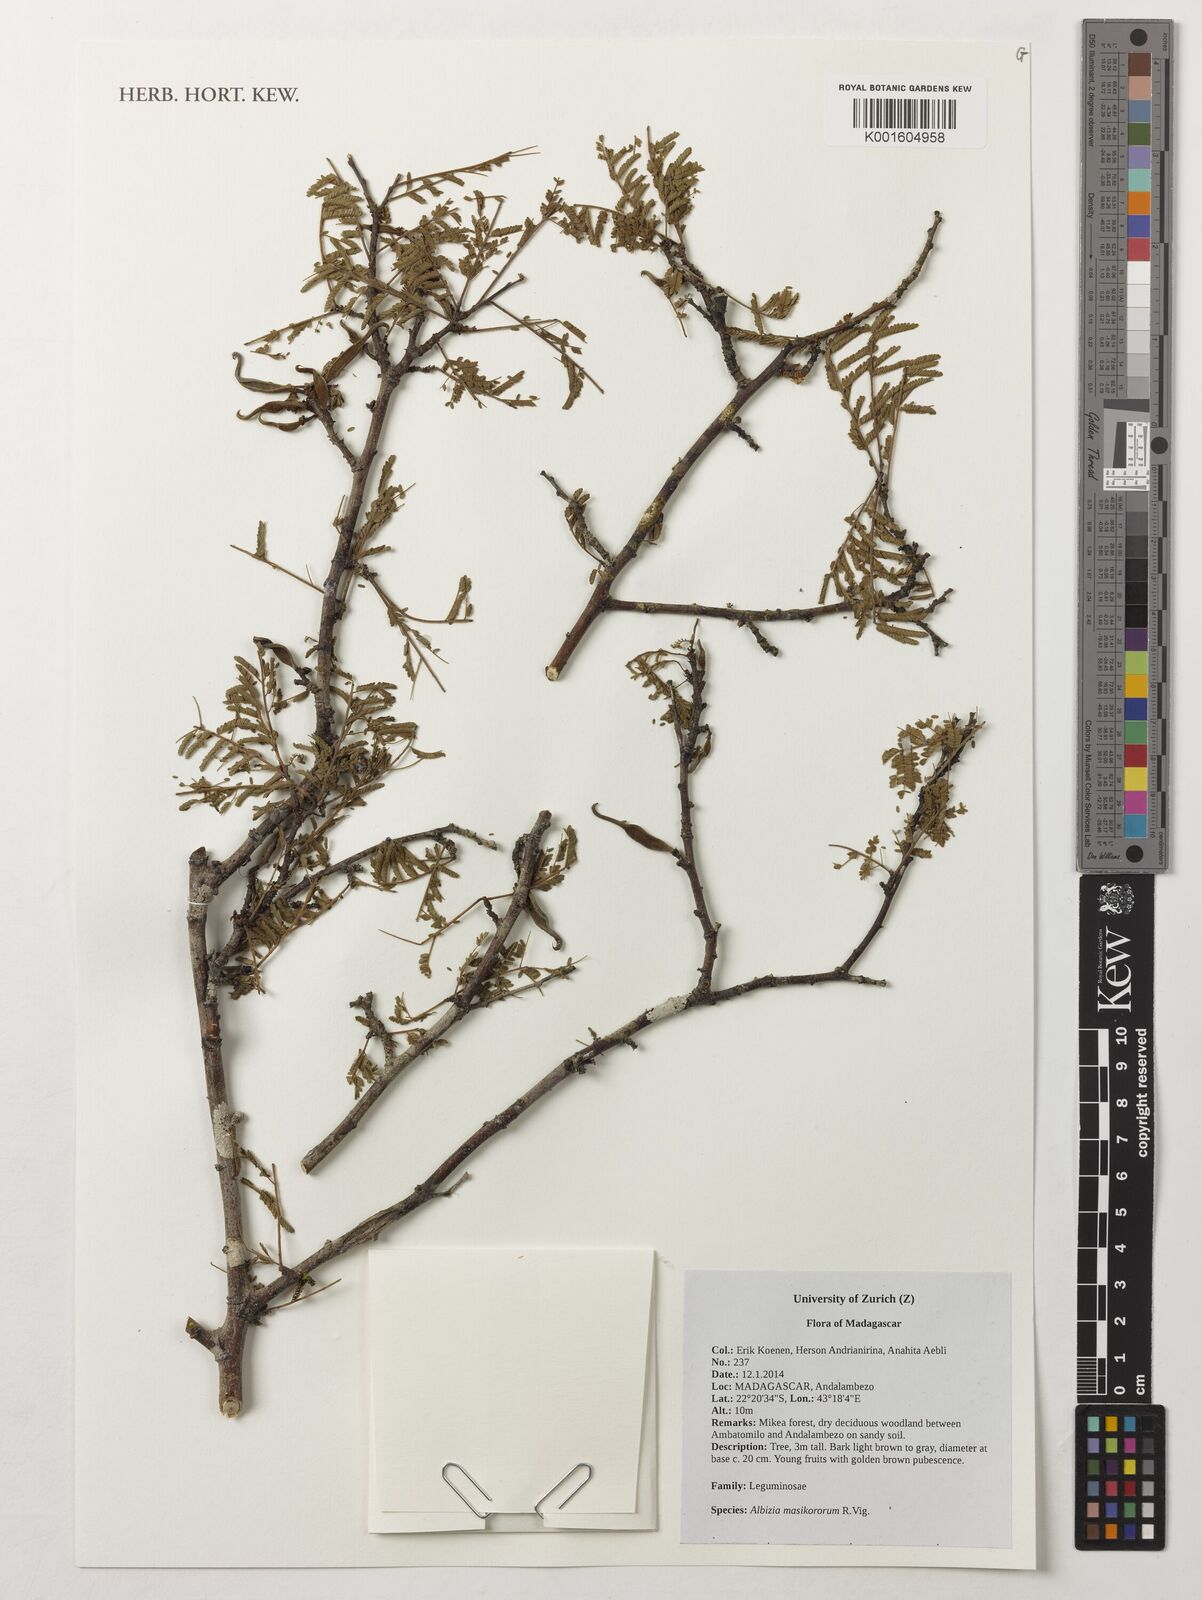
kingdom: Plantae
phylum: Tracheophyta
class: Magnoliopsida
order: Fabales
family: Fabaceae
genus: Albizia
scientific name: Albizia masikororum
